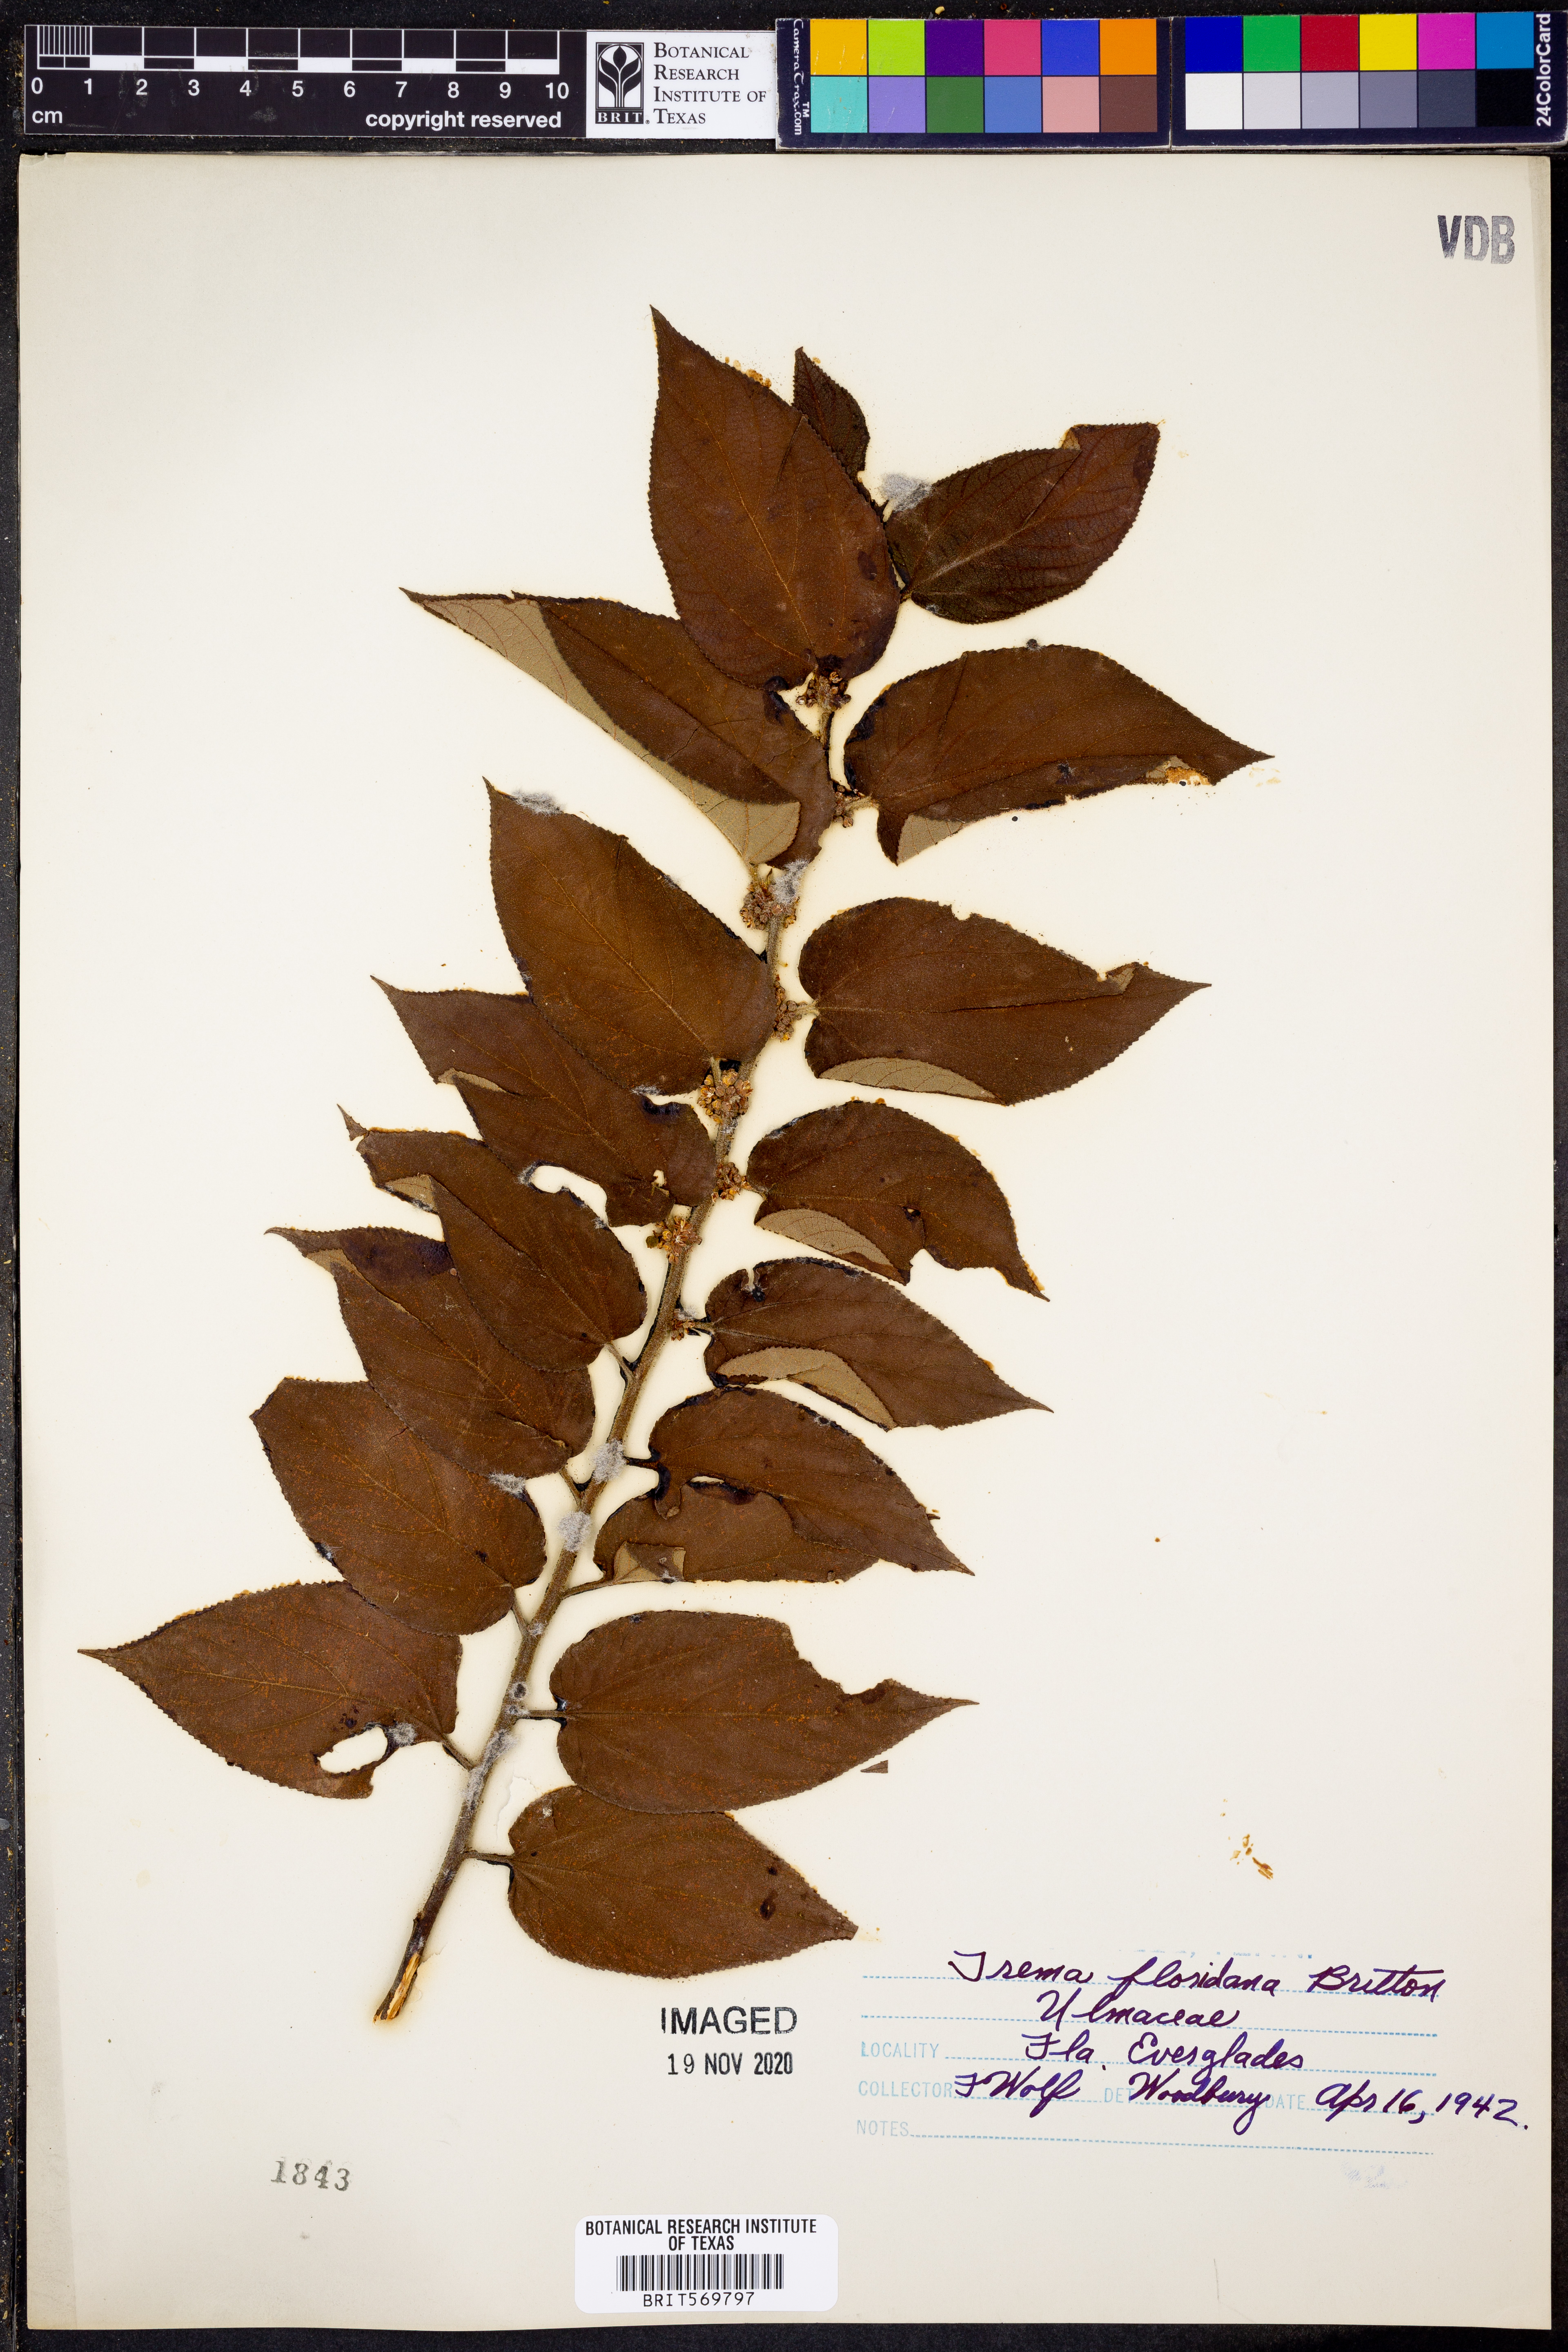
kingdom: Plantae
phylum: Tracheophyta
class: Magnoliopsida
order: Rosales
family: Cannabaceae
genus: Trema
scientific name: Trema micranthum
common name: Jamaican nettletree
